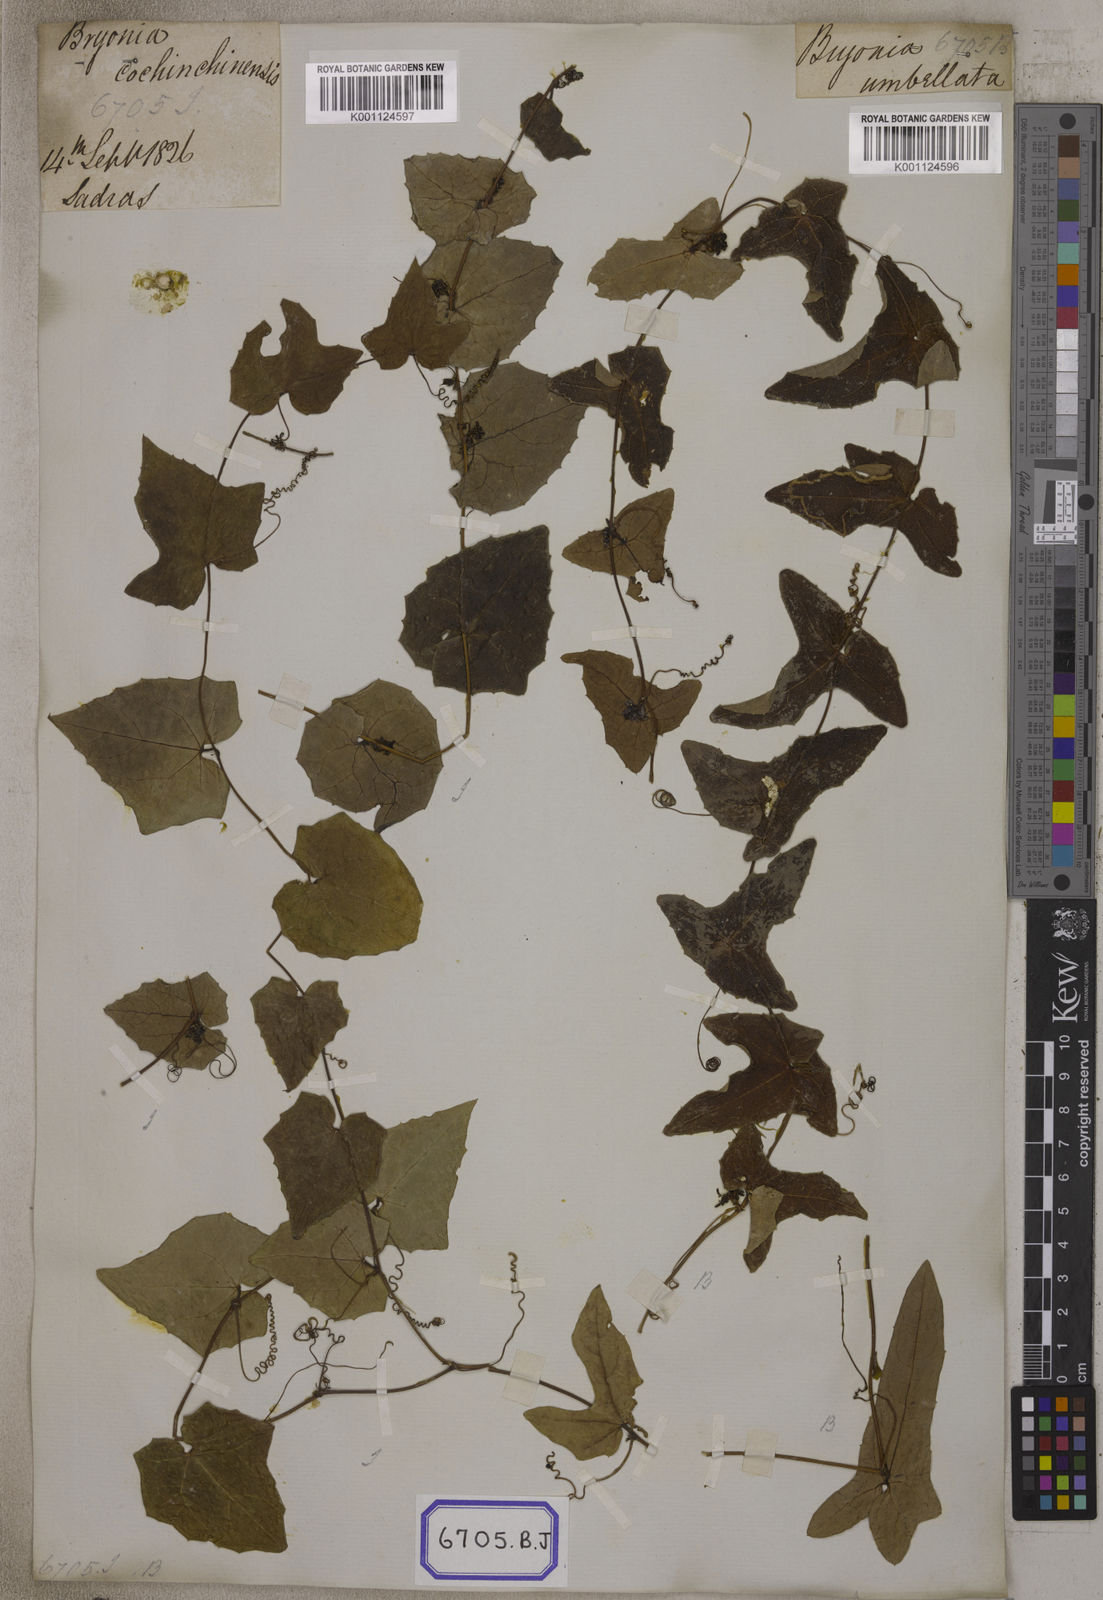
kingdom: Plantae
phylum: Tracheophyta
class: Magnoliopsida
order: Cucurbitales
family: Cucurbitaceae
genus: Bryonia
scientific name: Bryonia
